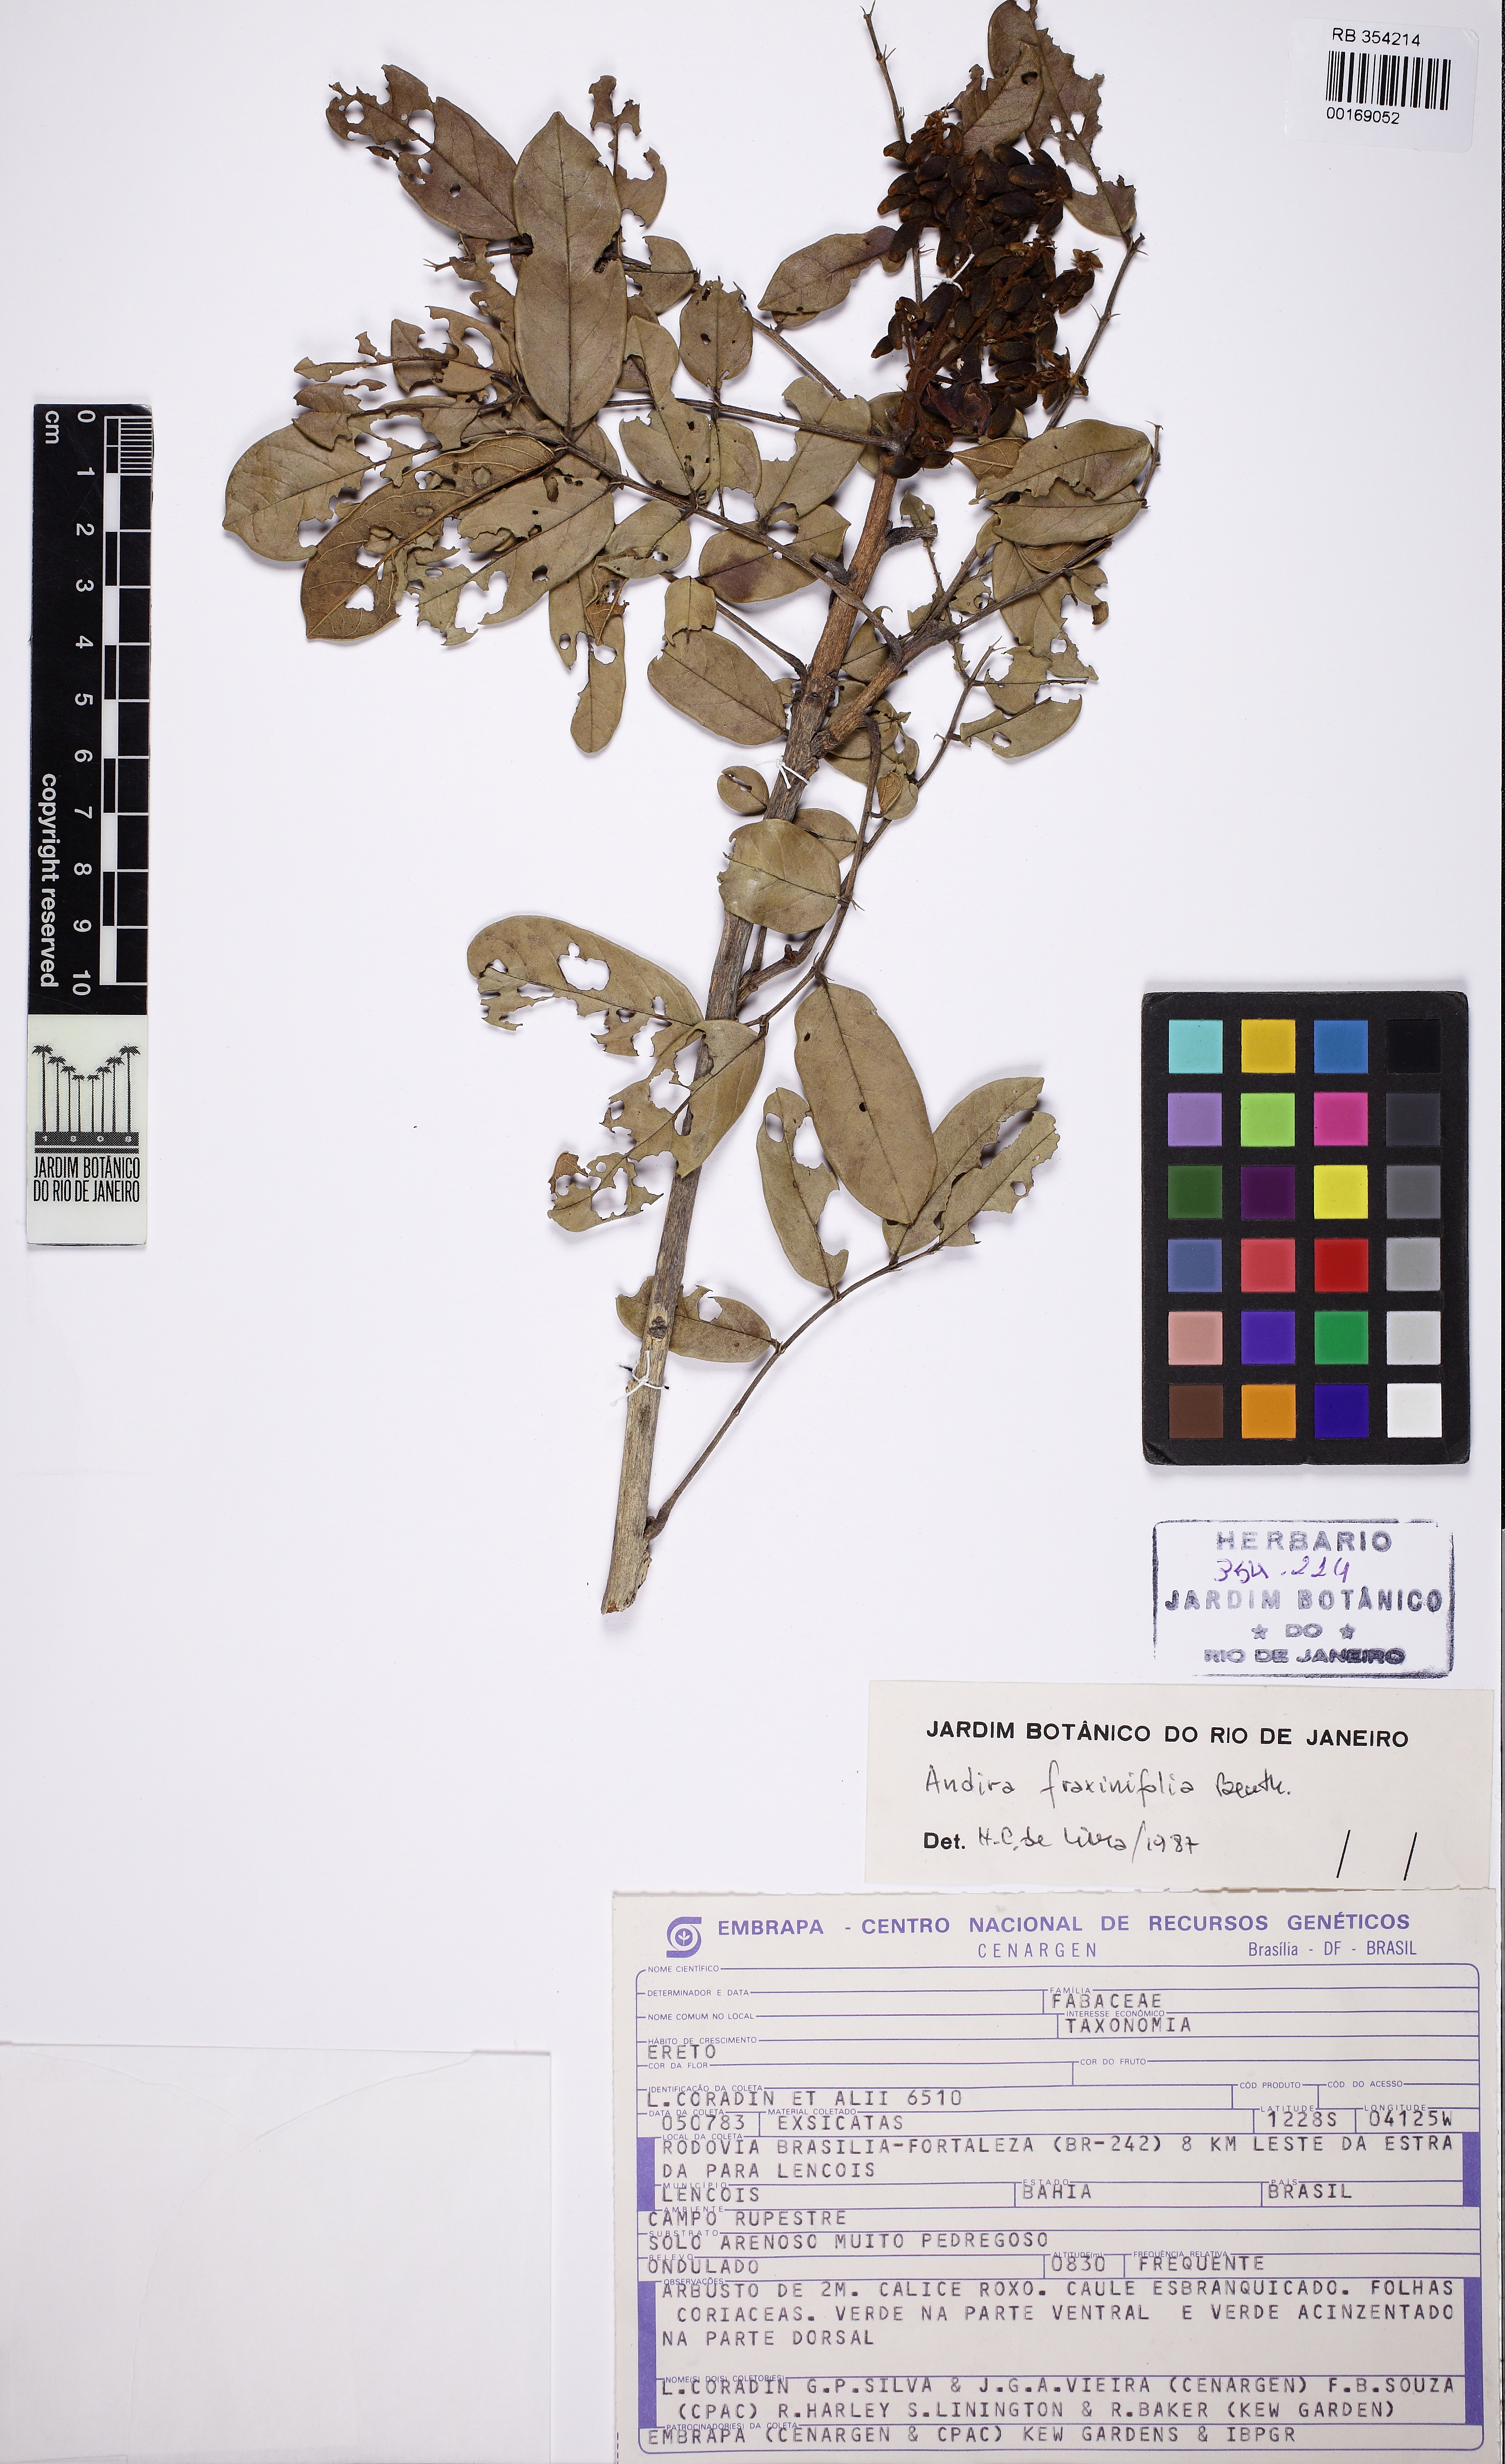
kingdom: Plantae
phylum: Tracheophyta
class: Magnoliopsida
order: Fabales
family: Fabaceae
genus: Andira
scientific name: Andira fraxinifolia
